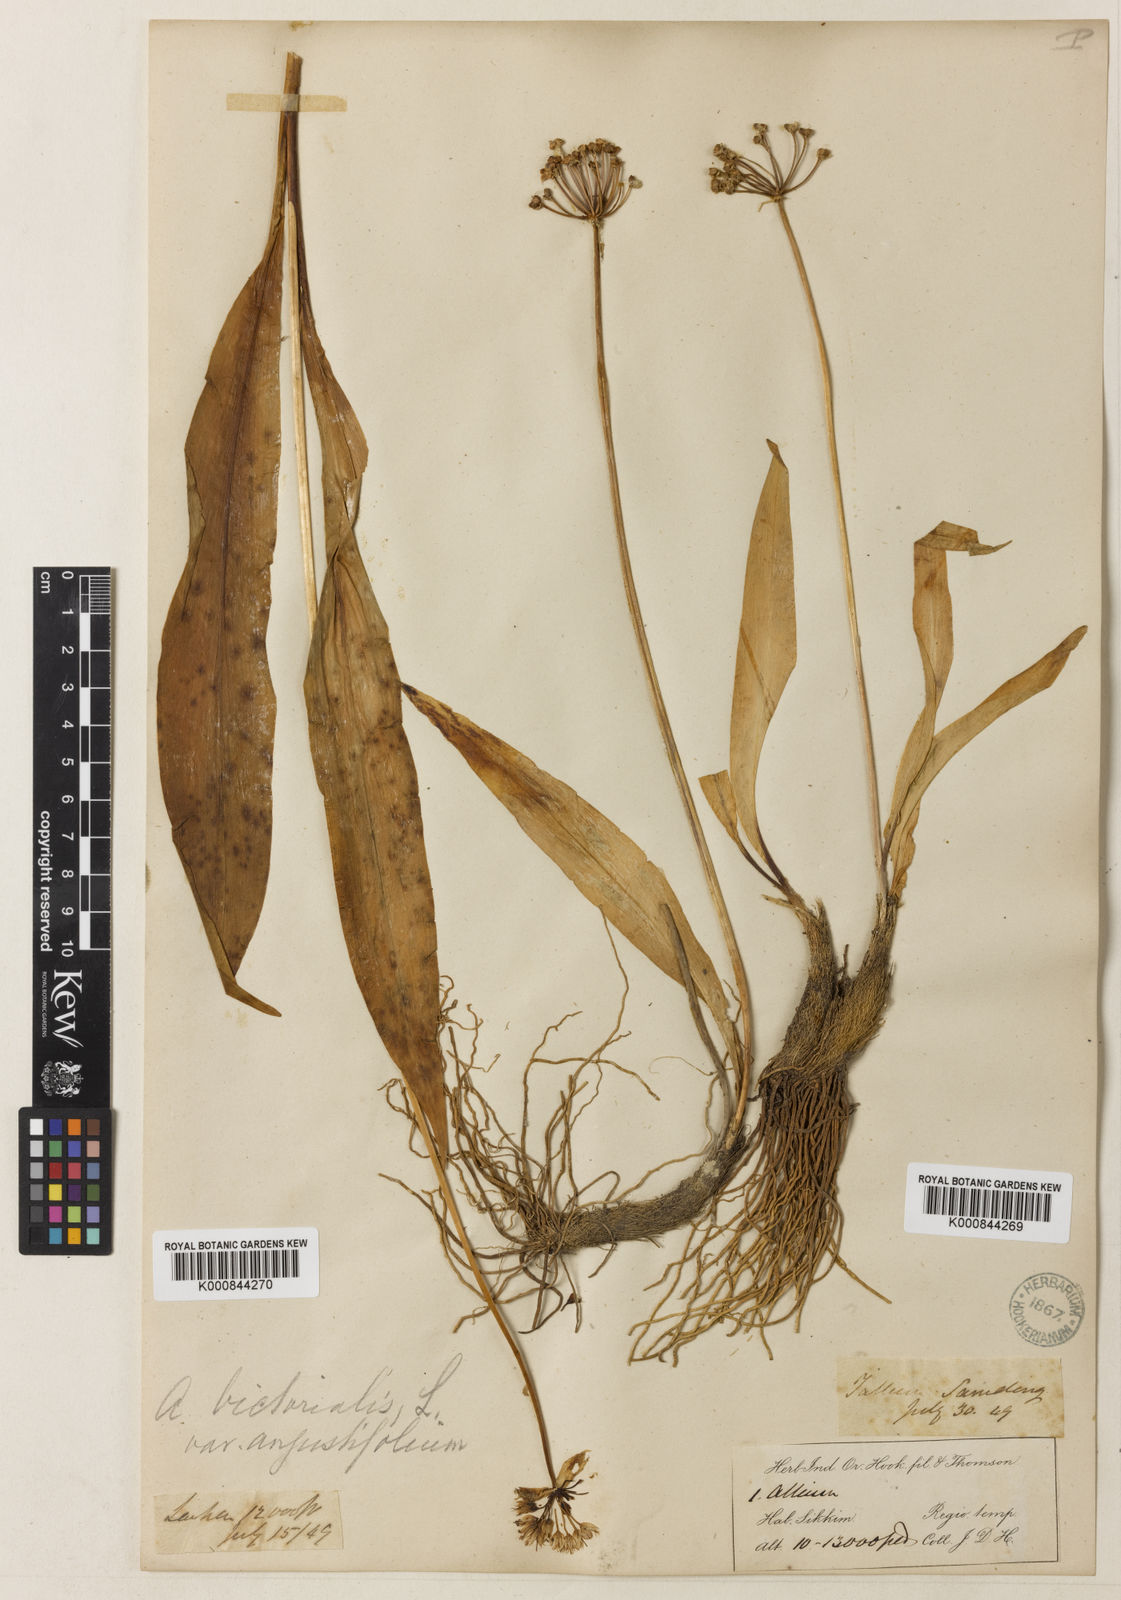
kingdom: Plantae
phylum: Tracheophyta
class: Liliopsida
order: Asparagales
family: Amaryllidaceae
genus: Allium
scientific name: Allium victorialis
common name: Alpine leek
